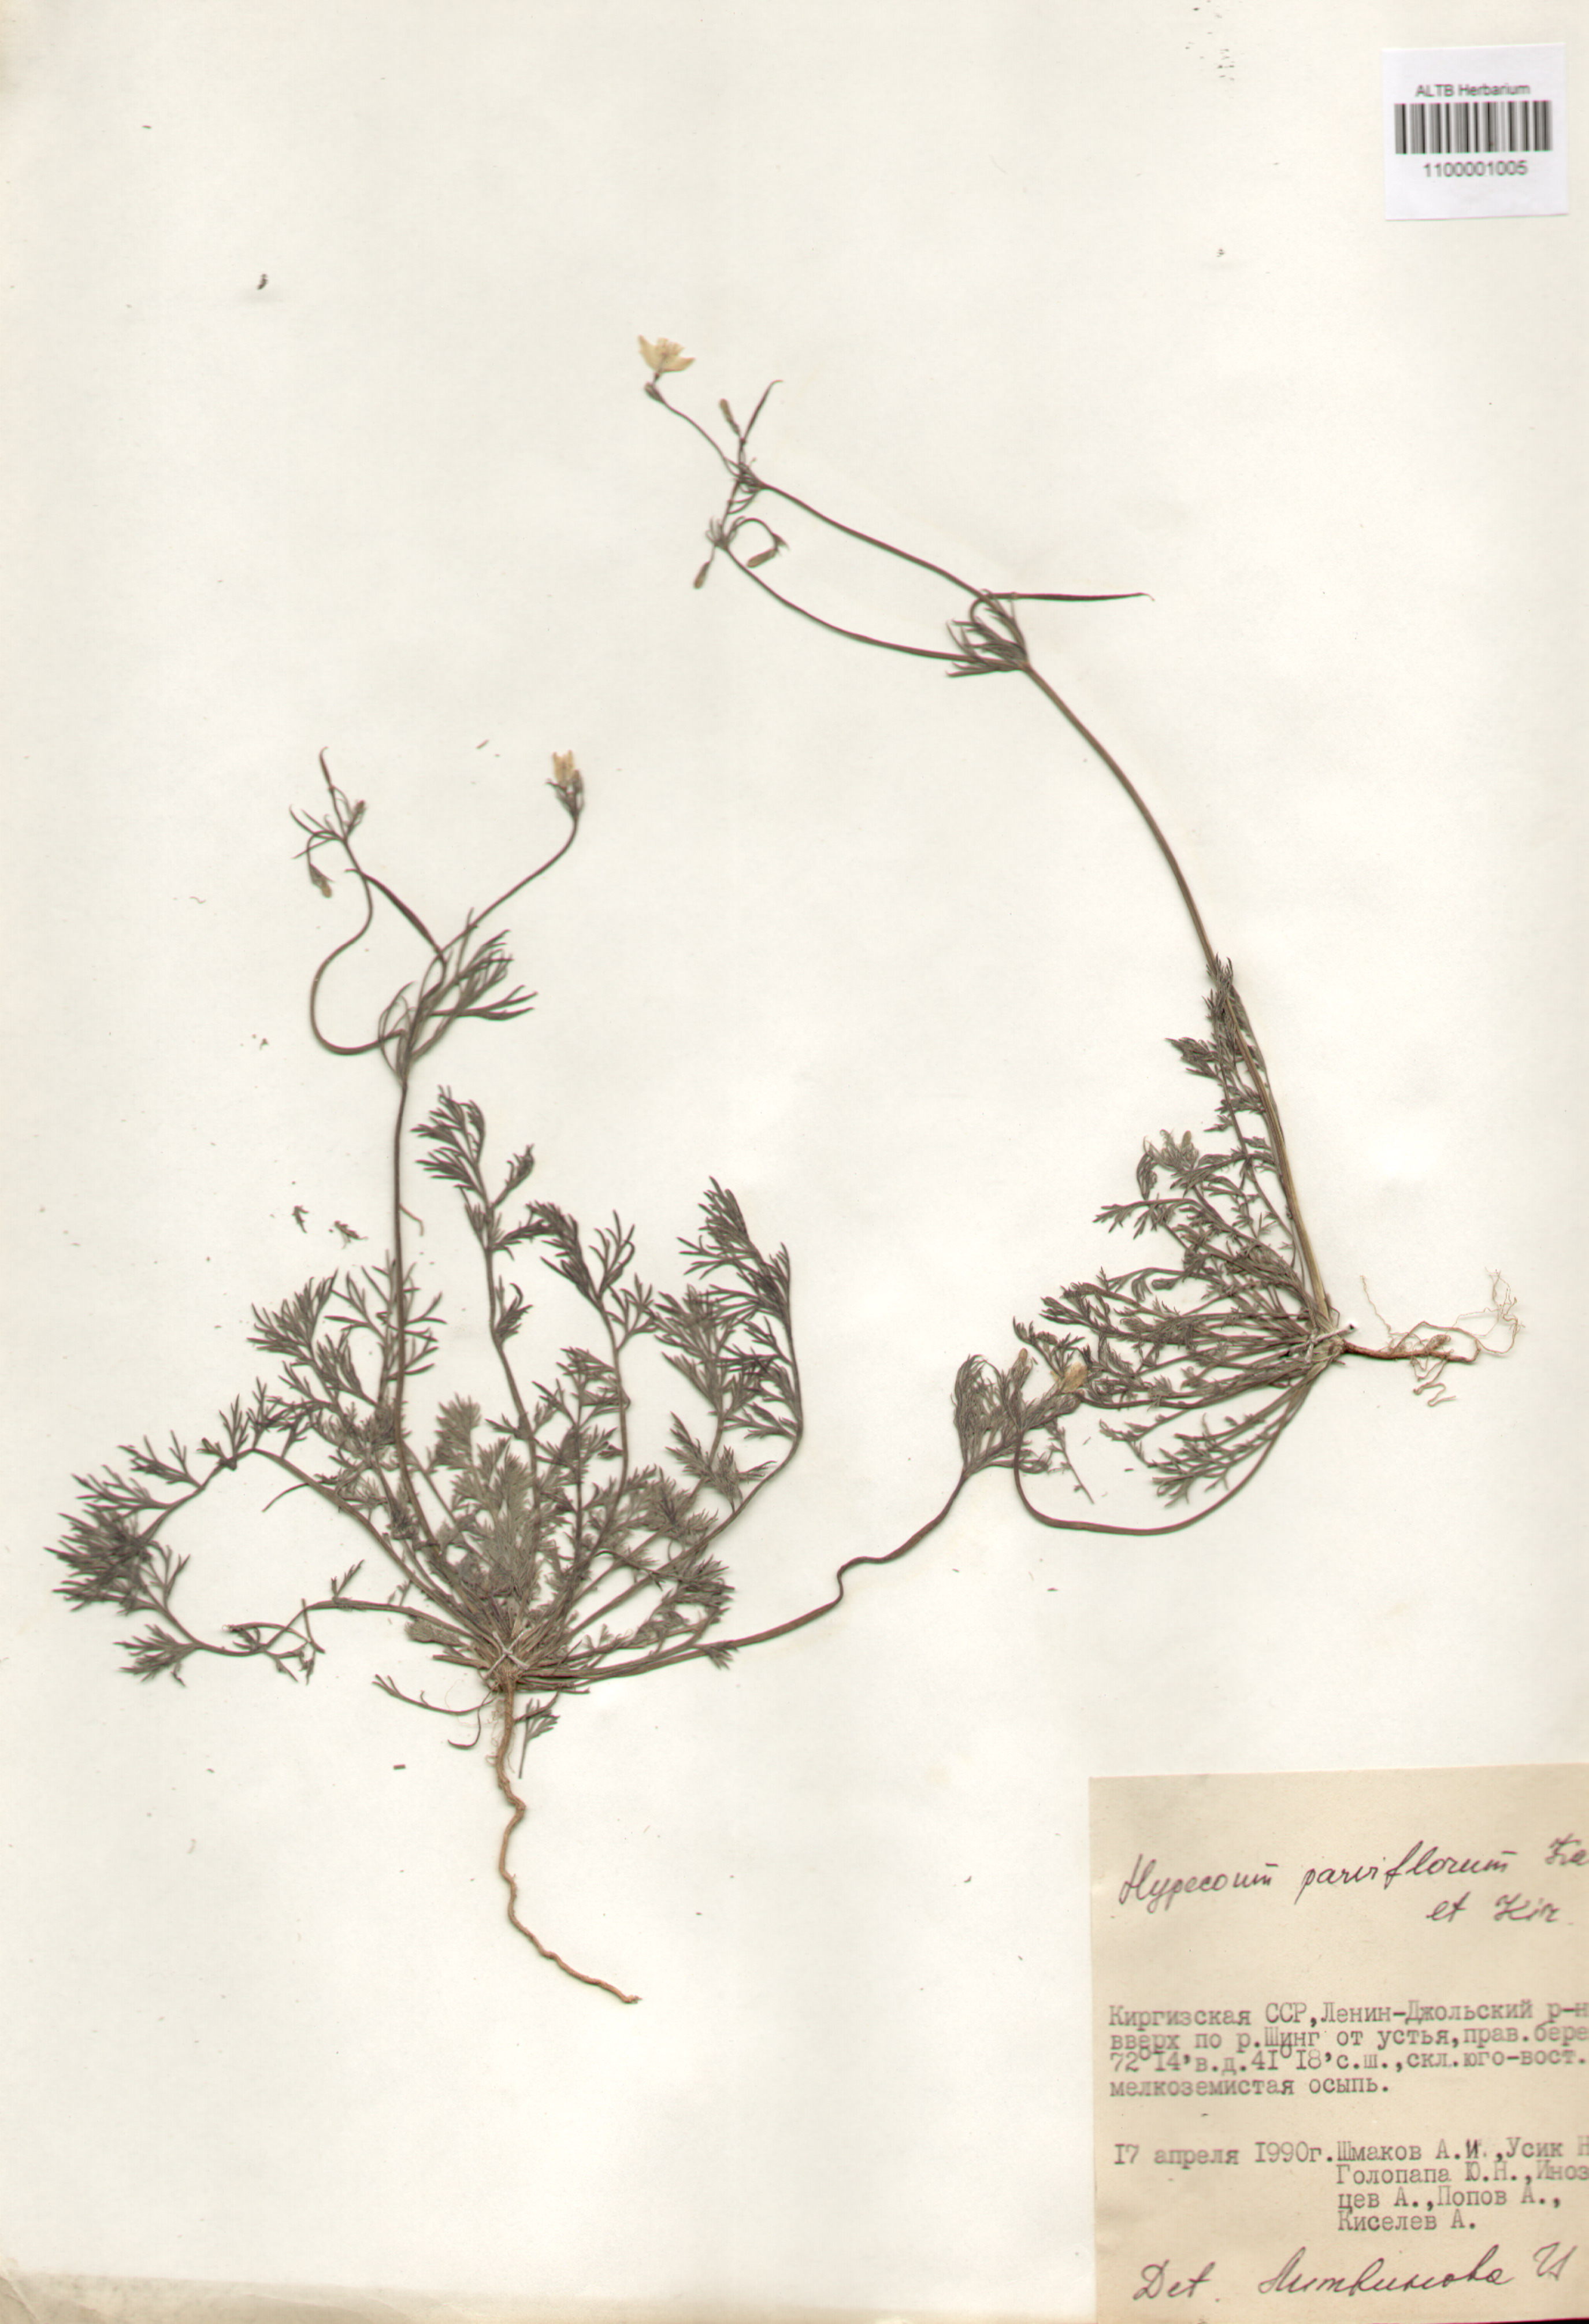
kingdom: Plantae
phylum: Tracheophyta
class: Magnoliopsida
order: Ranunculales
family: Papaveraceae
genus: Hypecoum
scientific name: Hypecoum parviflorum
